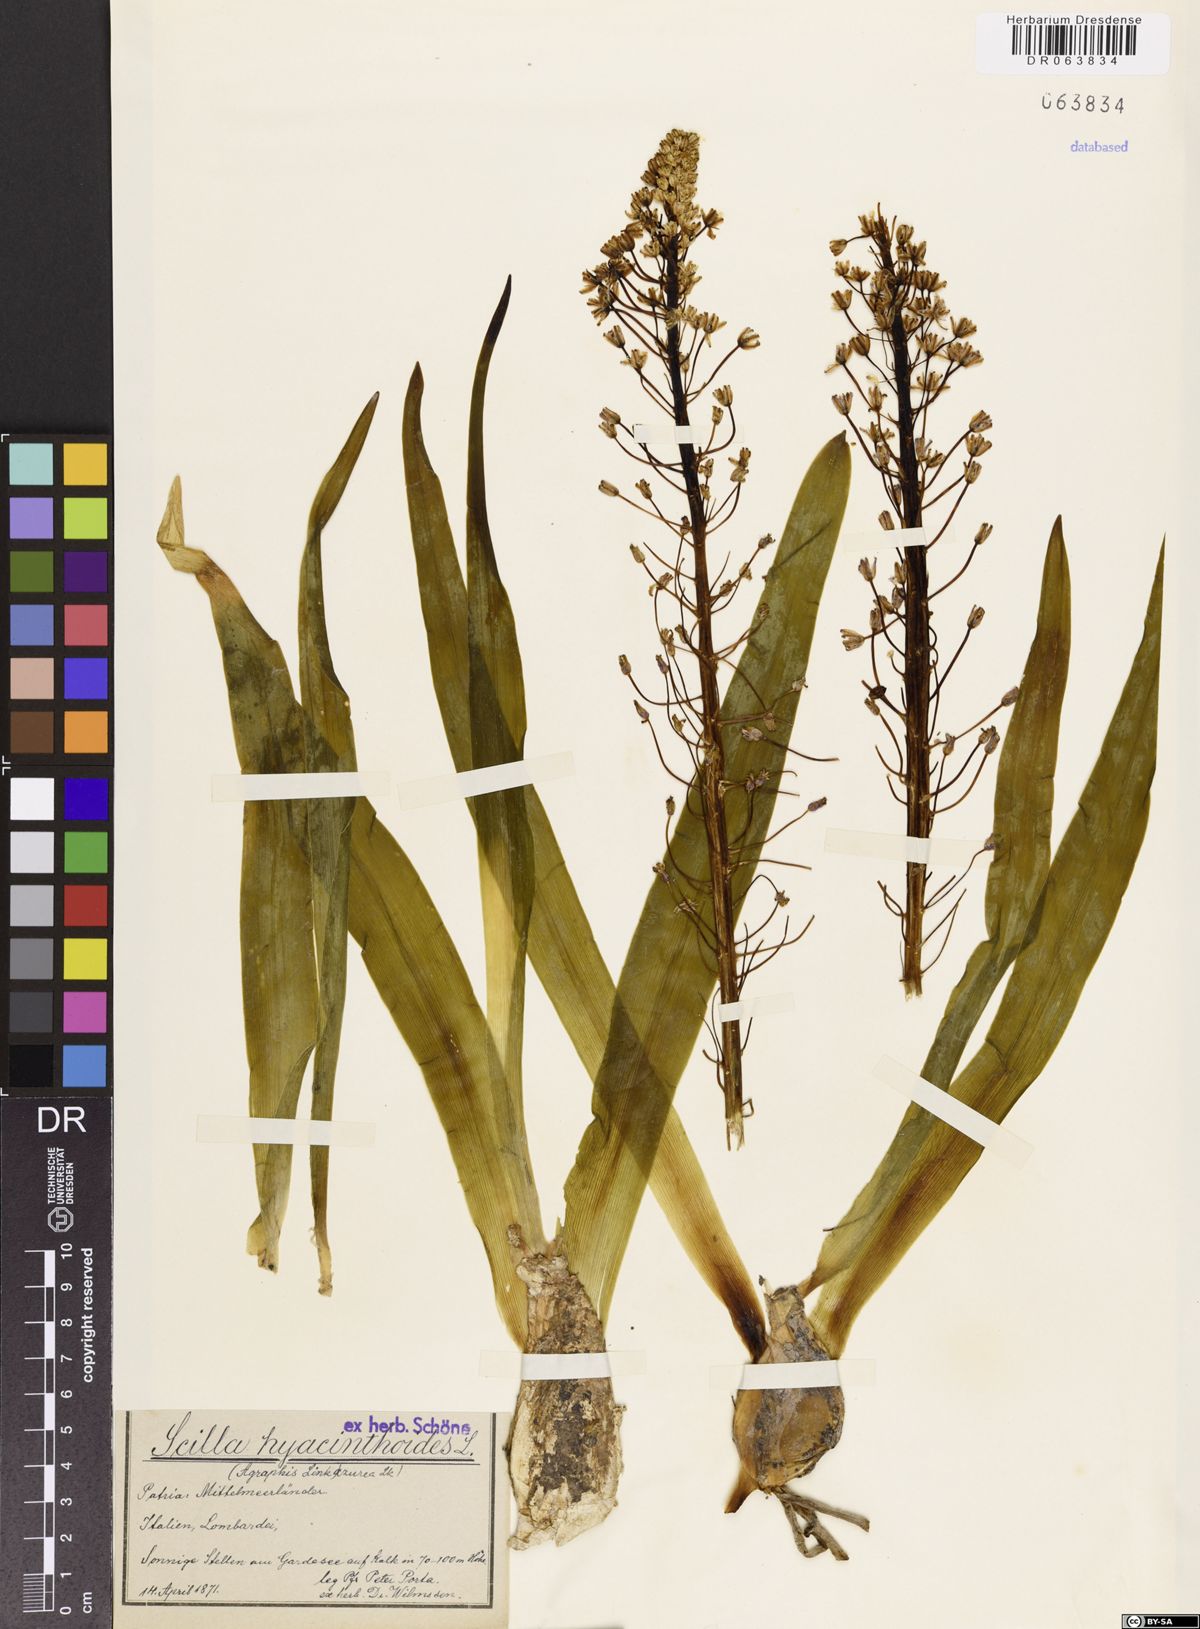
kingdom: Plantae
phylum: Tracheophyta
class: Liliopsida
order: Asparagales
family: Asparagaceae
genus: Scilla
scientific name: Scilla hyacinthoides
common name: Scilla
